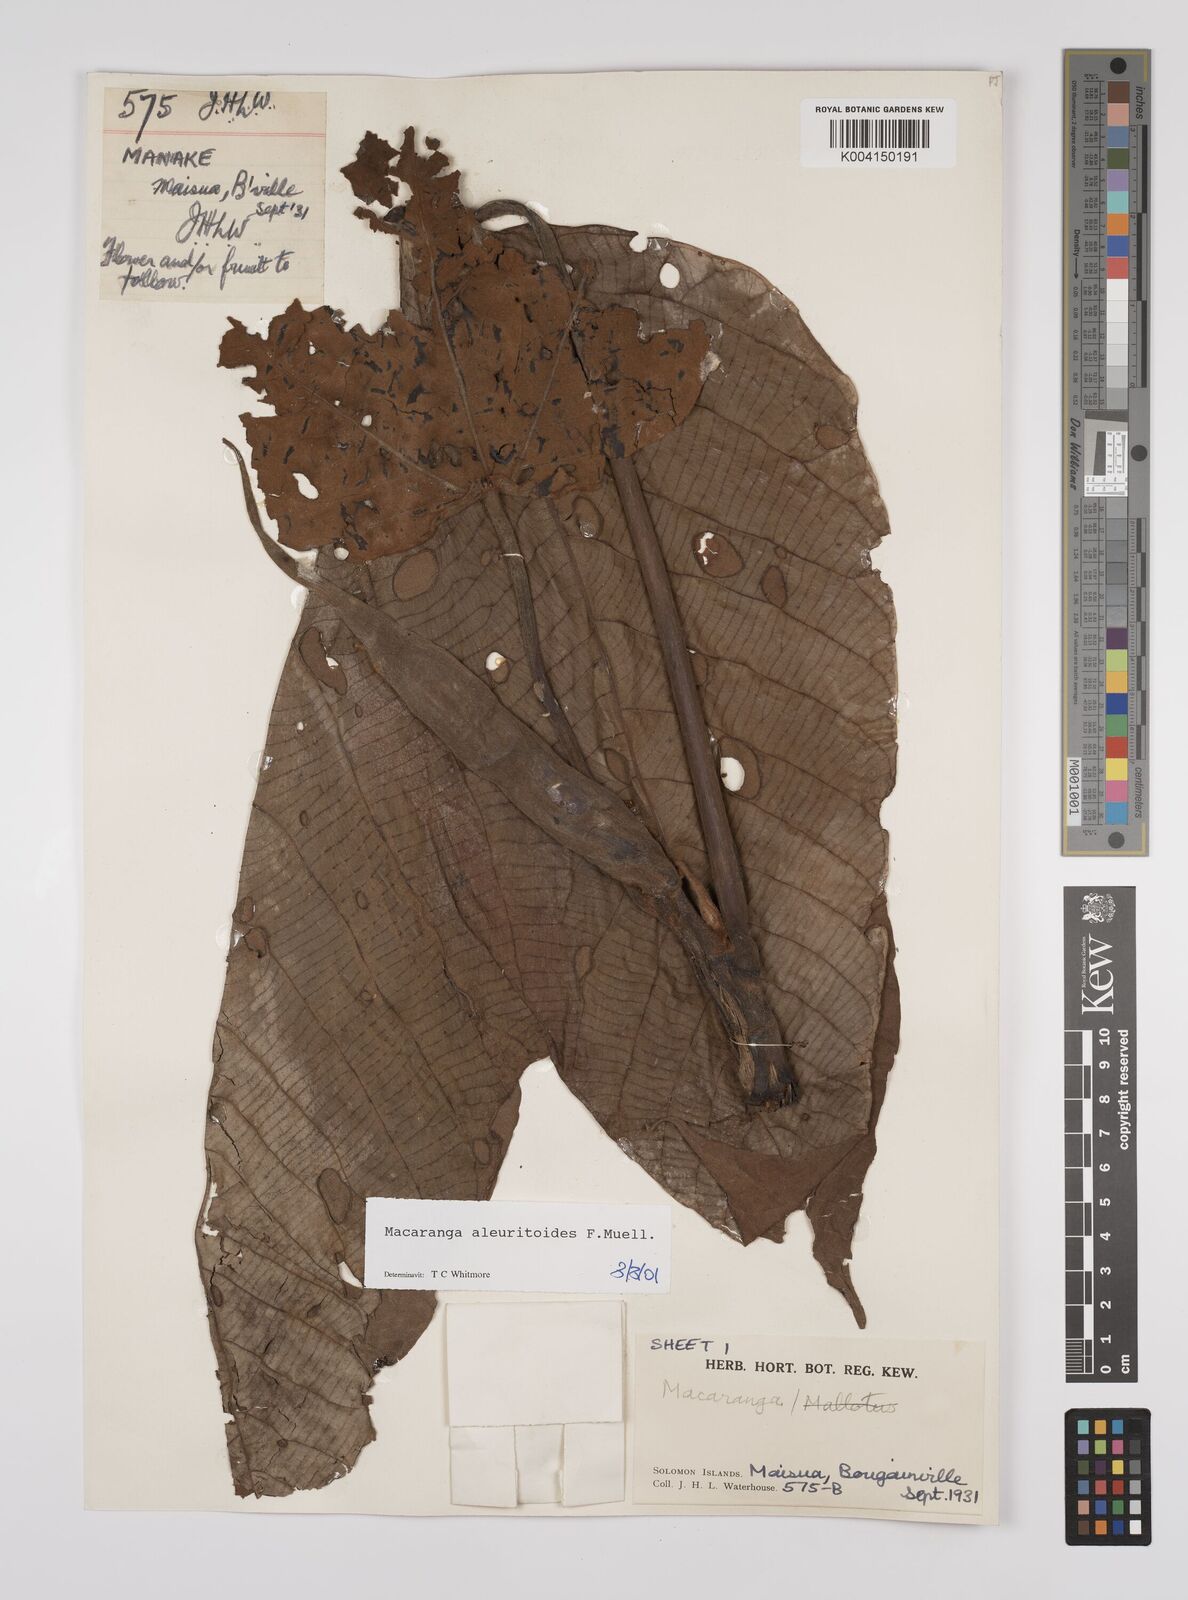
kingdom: Plantae
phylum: Tracheophyta
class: Magnoliopsida
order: Malpighiales
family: Euphorbiaceae
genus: Macaranga
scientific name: Macaranga aleuritoides
